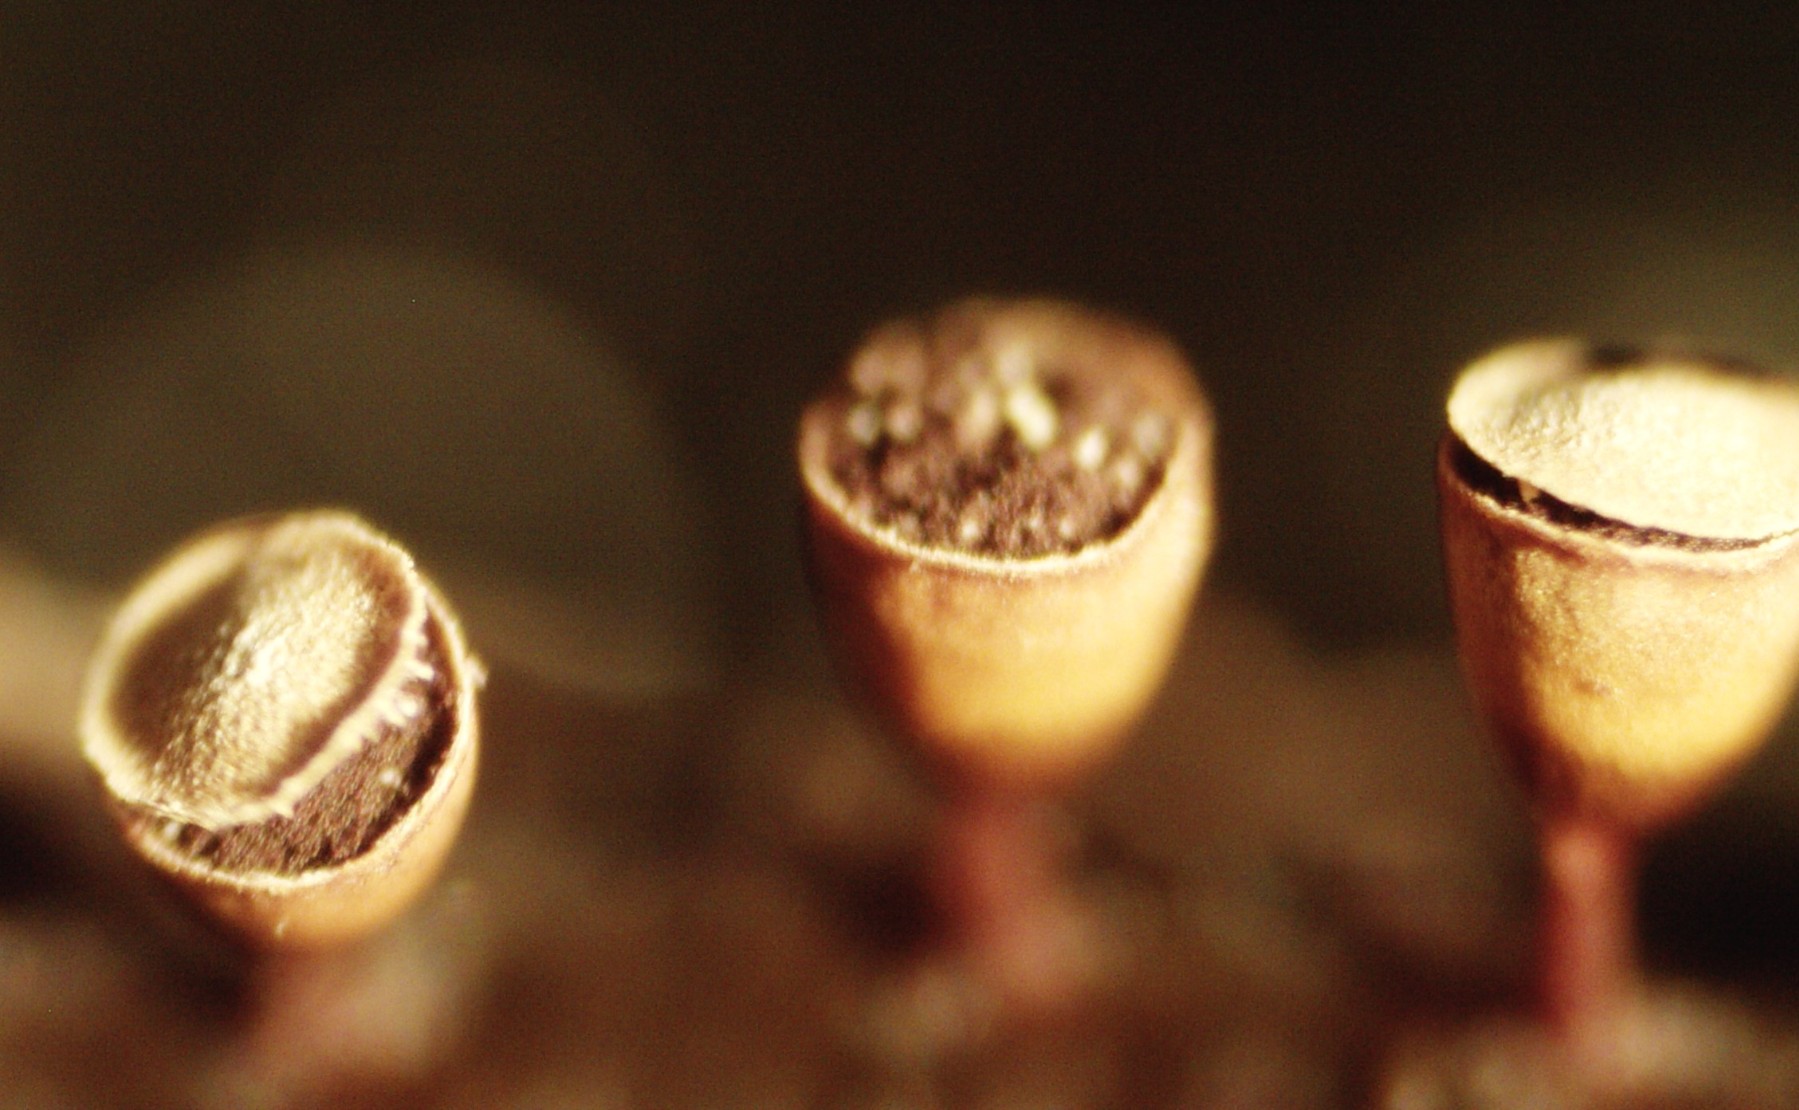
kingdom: Protozoa
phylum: Mycetozoa
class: Myxomycetes
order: Physarales
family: Physaraceae
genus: Craterium
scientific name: Craterium minutum
